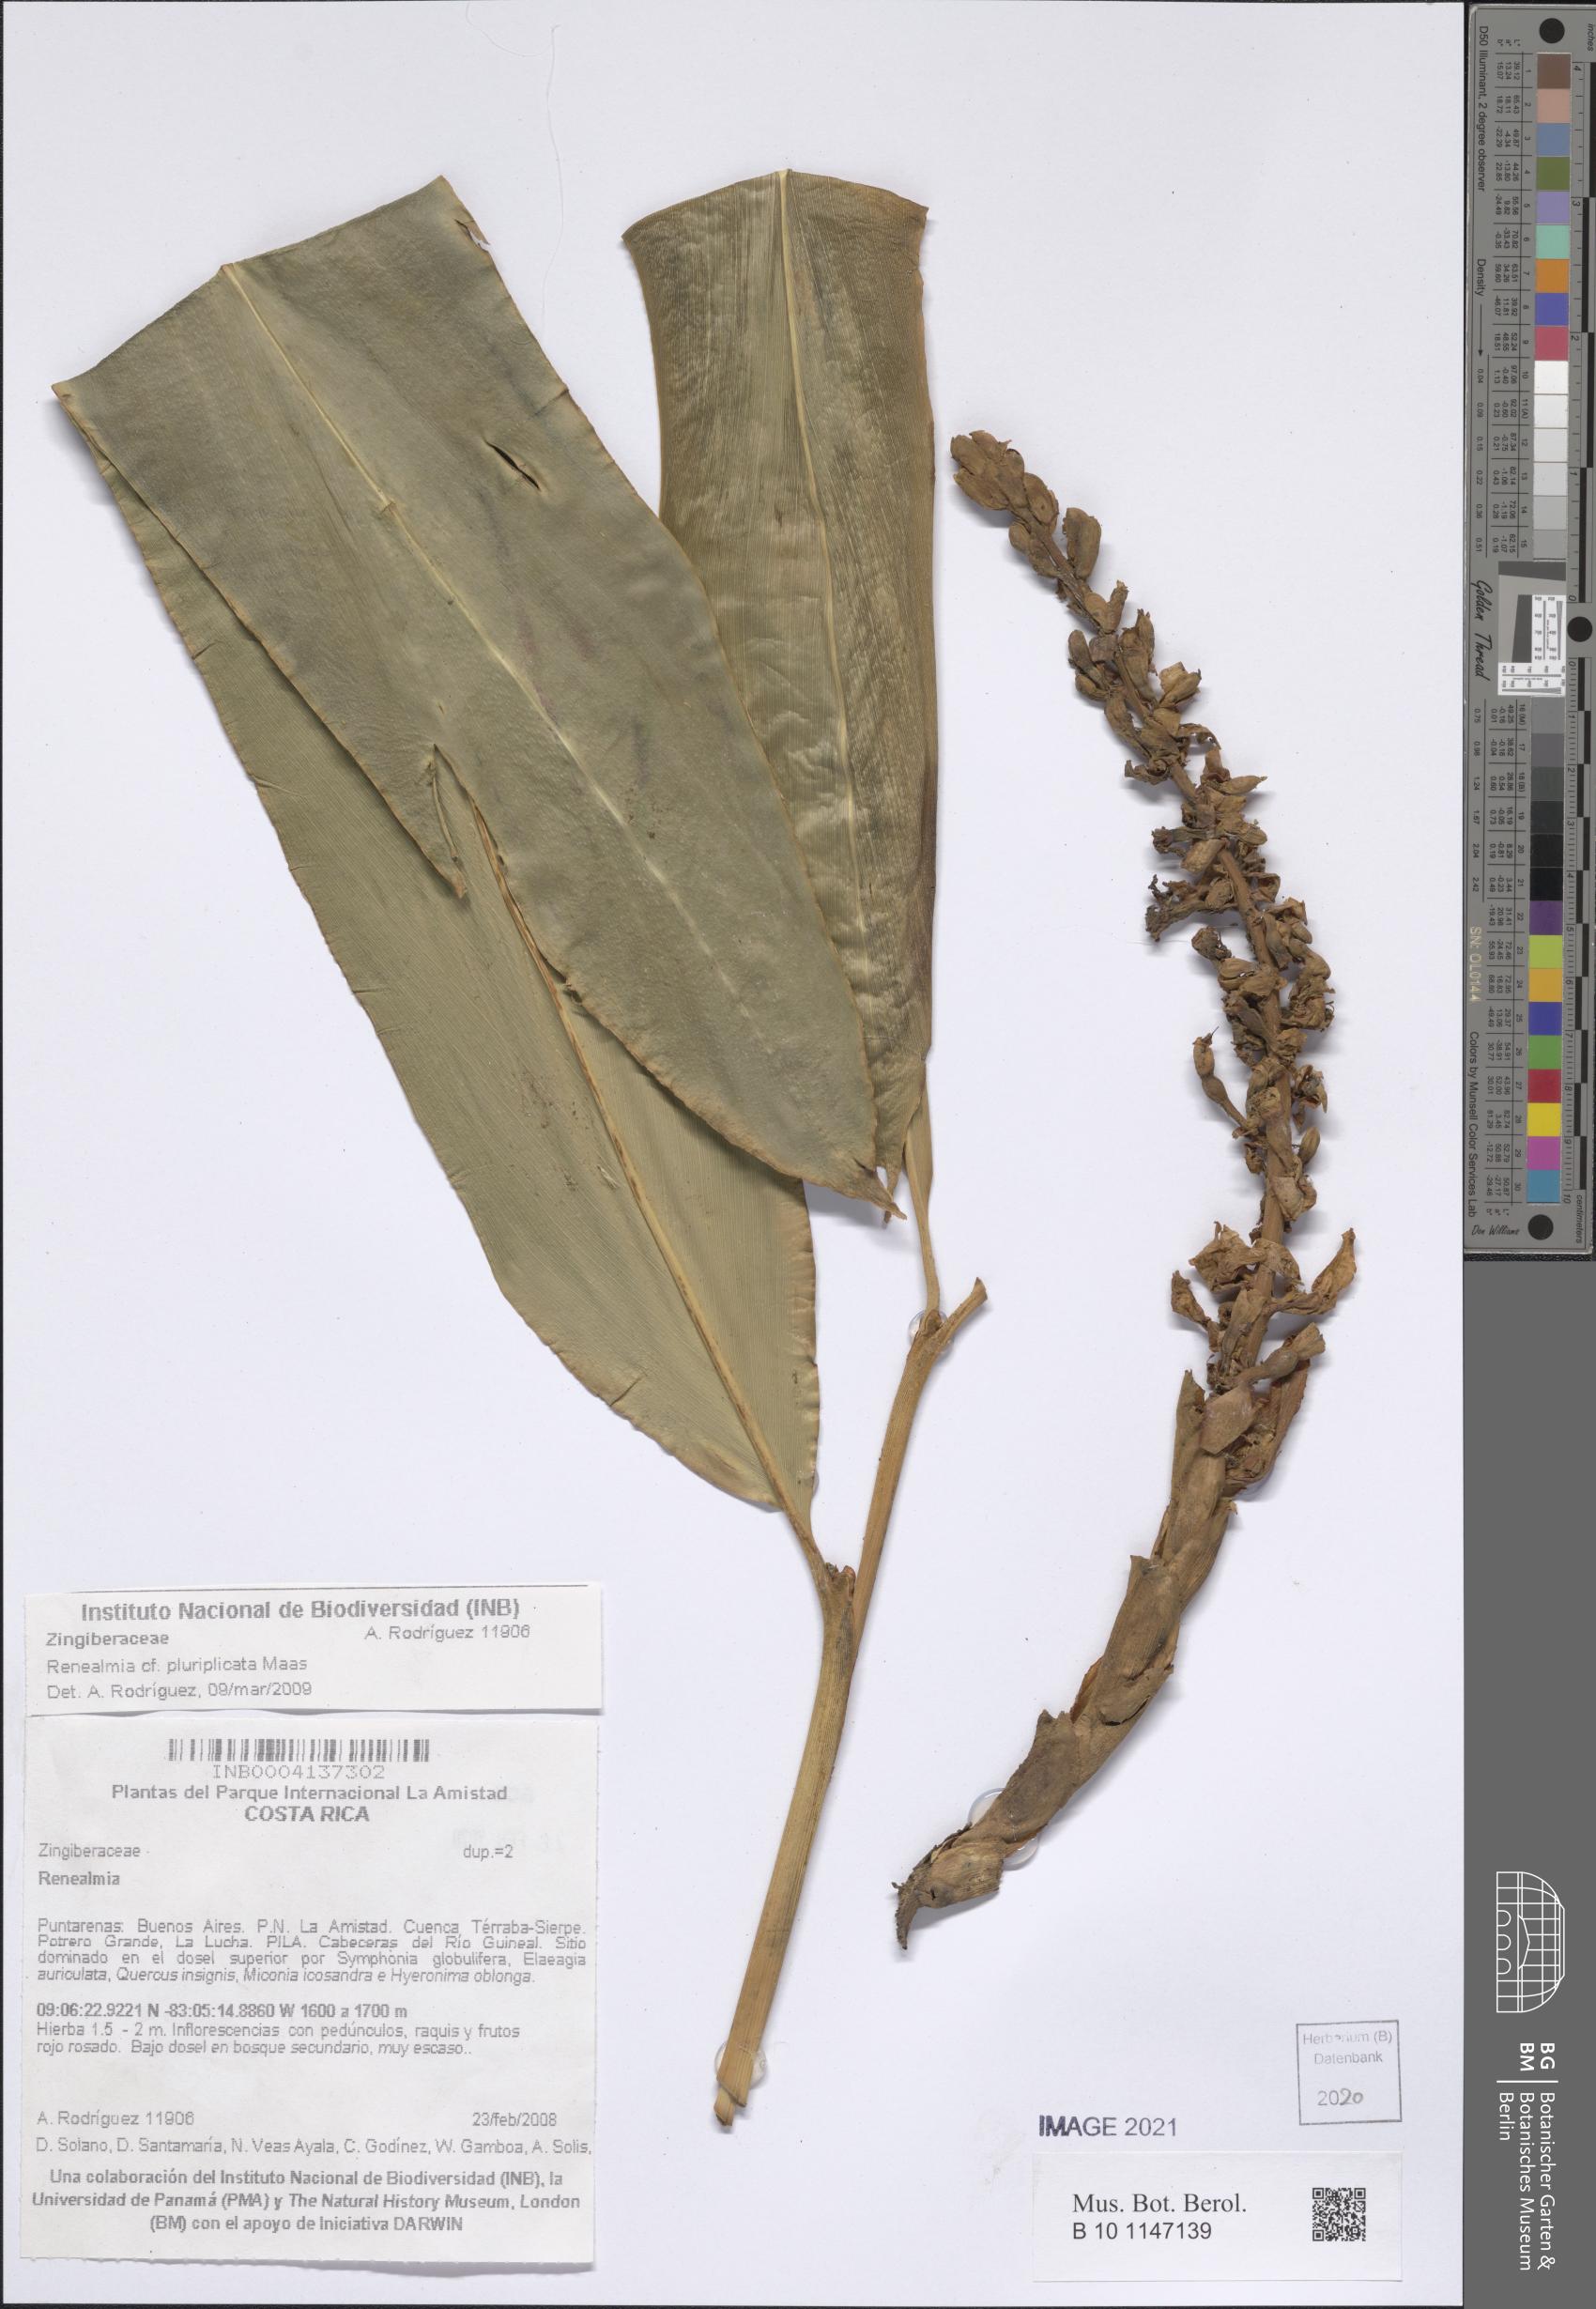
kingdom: Plantae
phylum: Tracheophyta
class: Liliopsida
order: Zingiberales
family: Zingiberaceae
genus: Renealmia
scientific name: Renealmia pluriplicata
